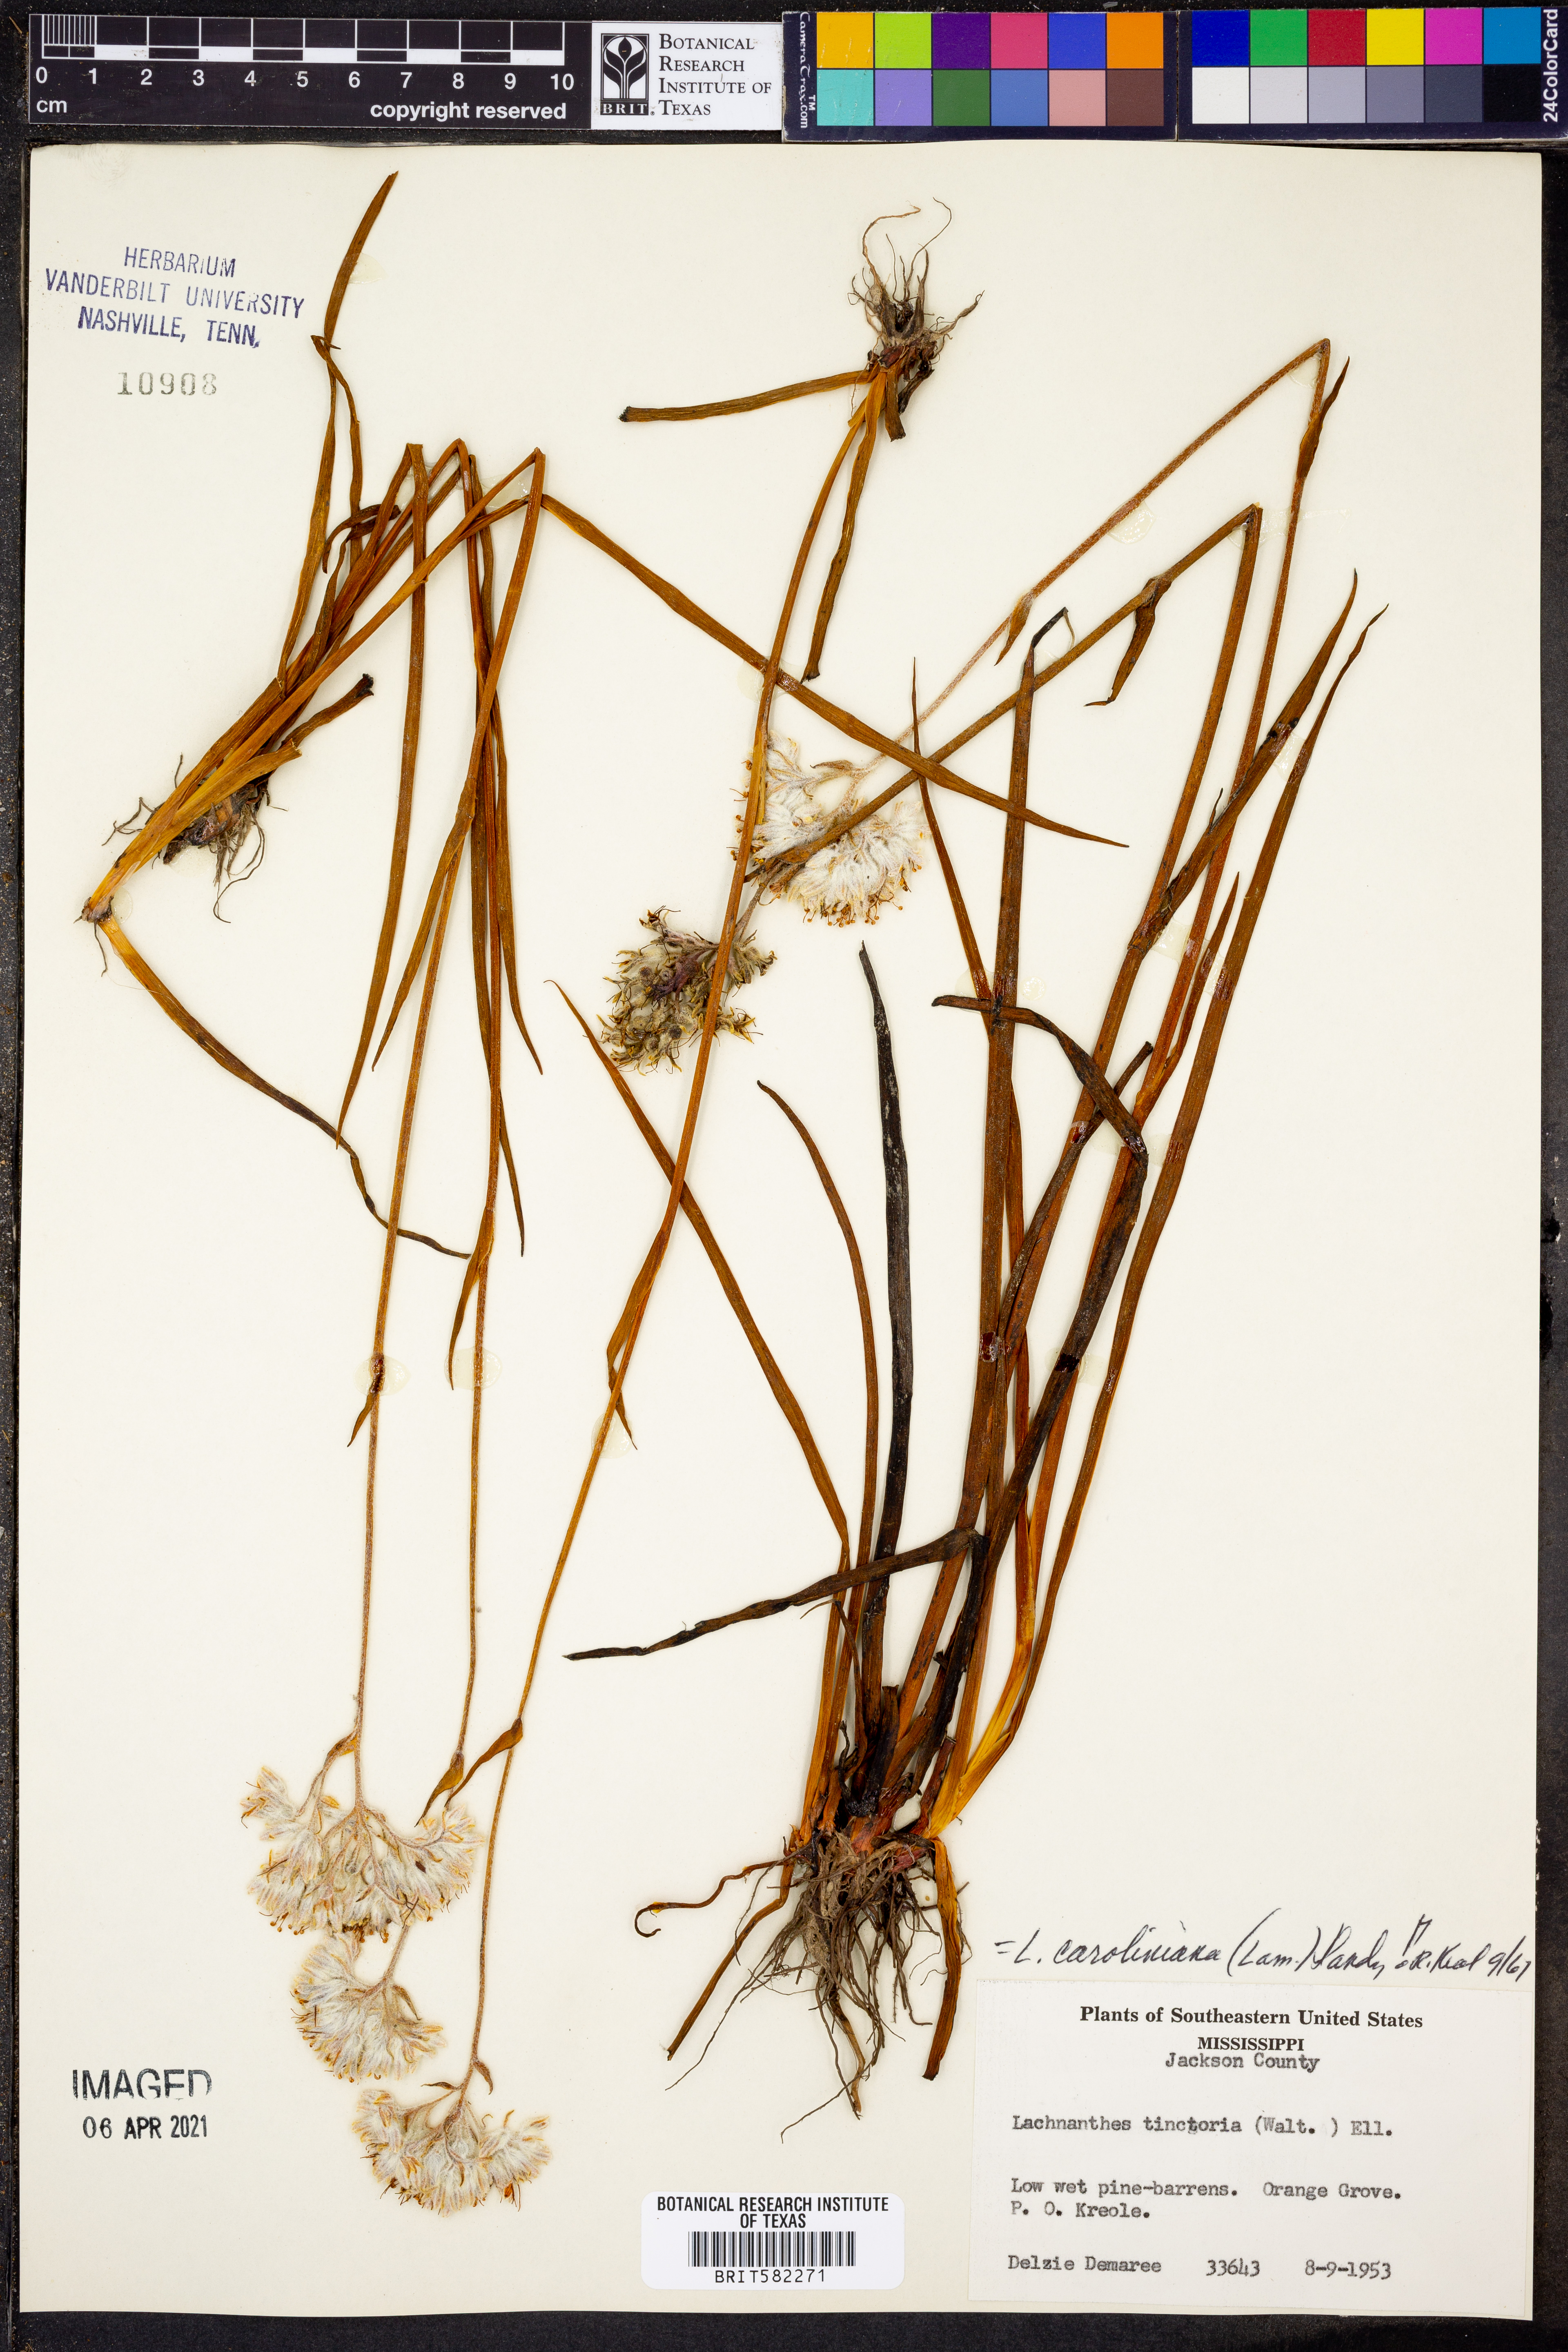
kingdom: Plantae
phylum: Tracheophyta
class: Liliopsida
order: Commelinales
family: Haemodoraceae
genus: Lachnanthes
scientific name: Lachnanthes caroliniana
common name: Carolina redroot
